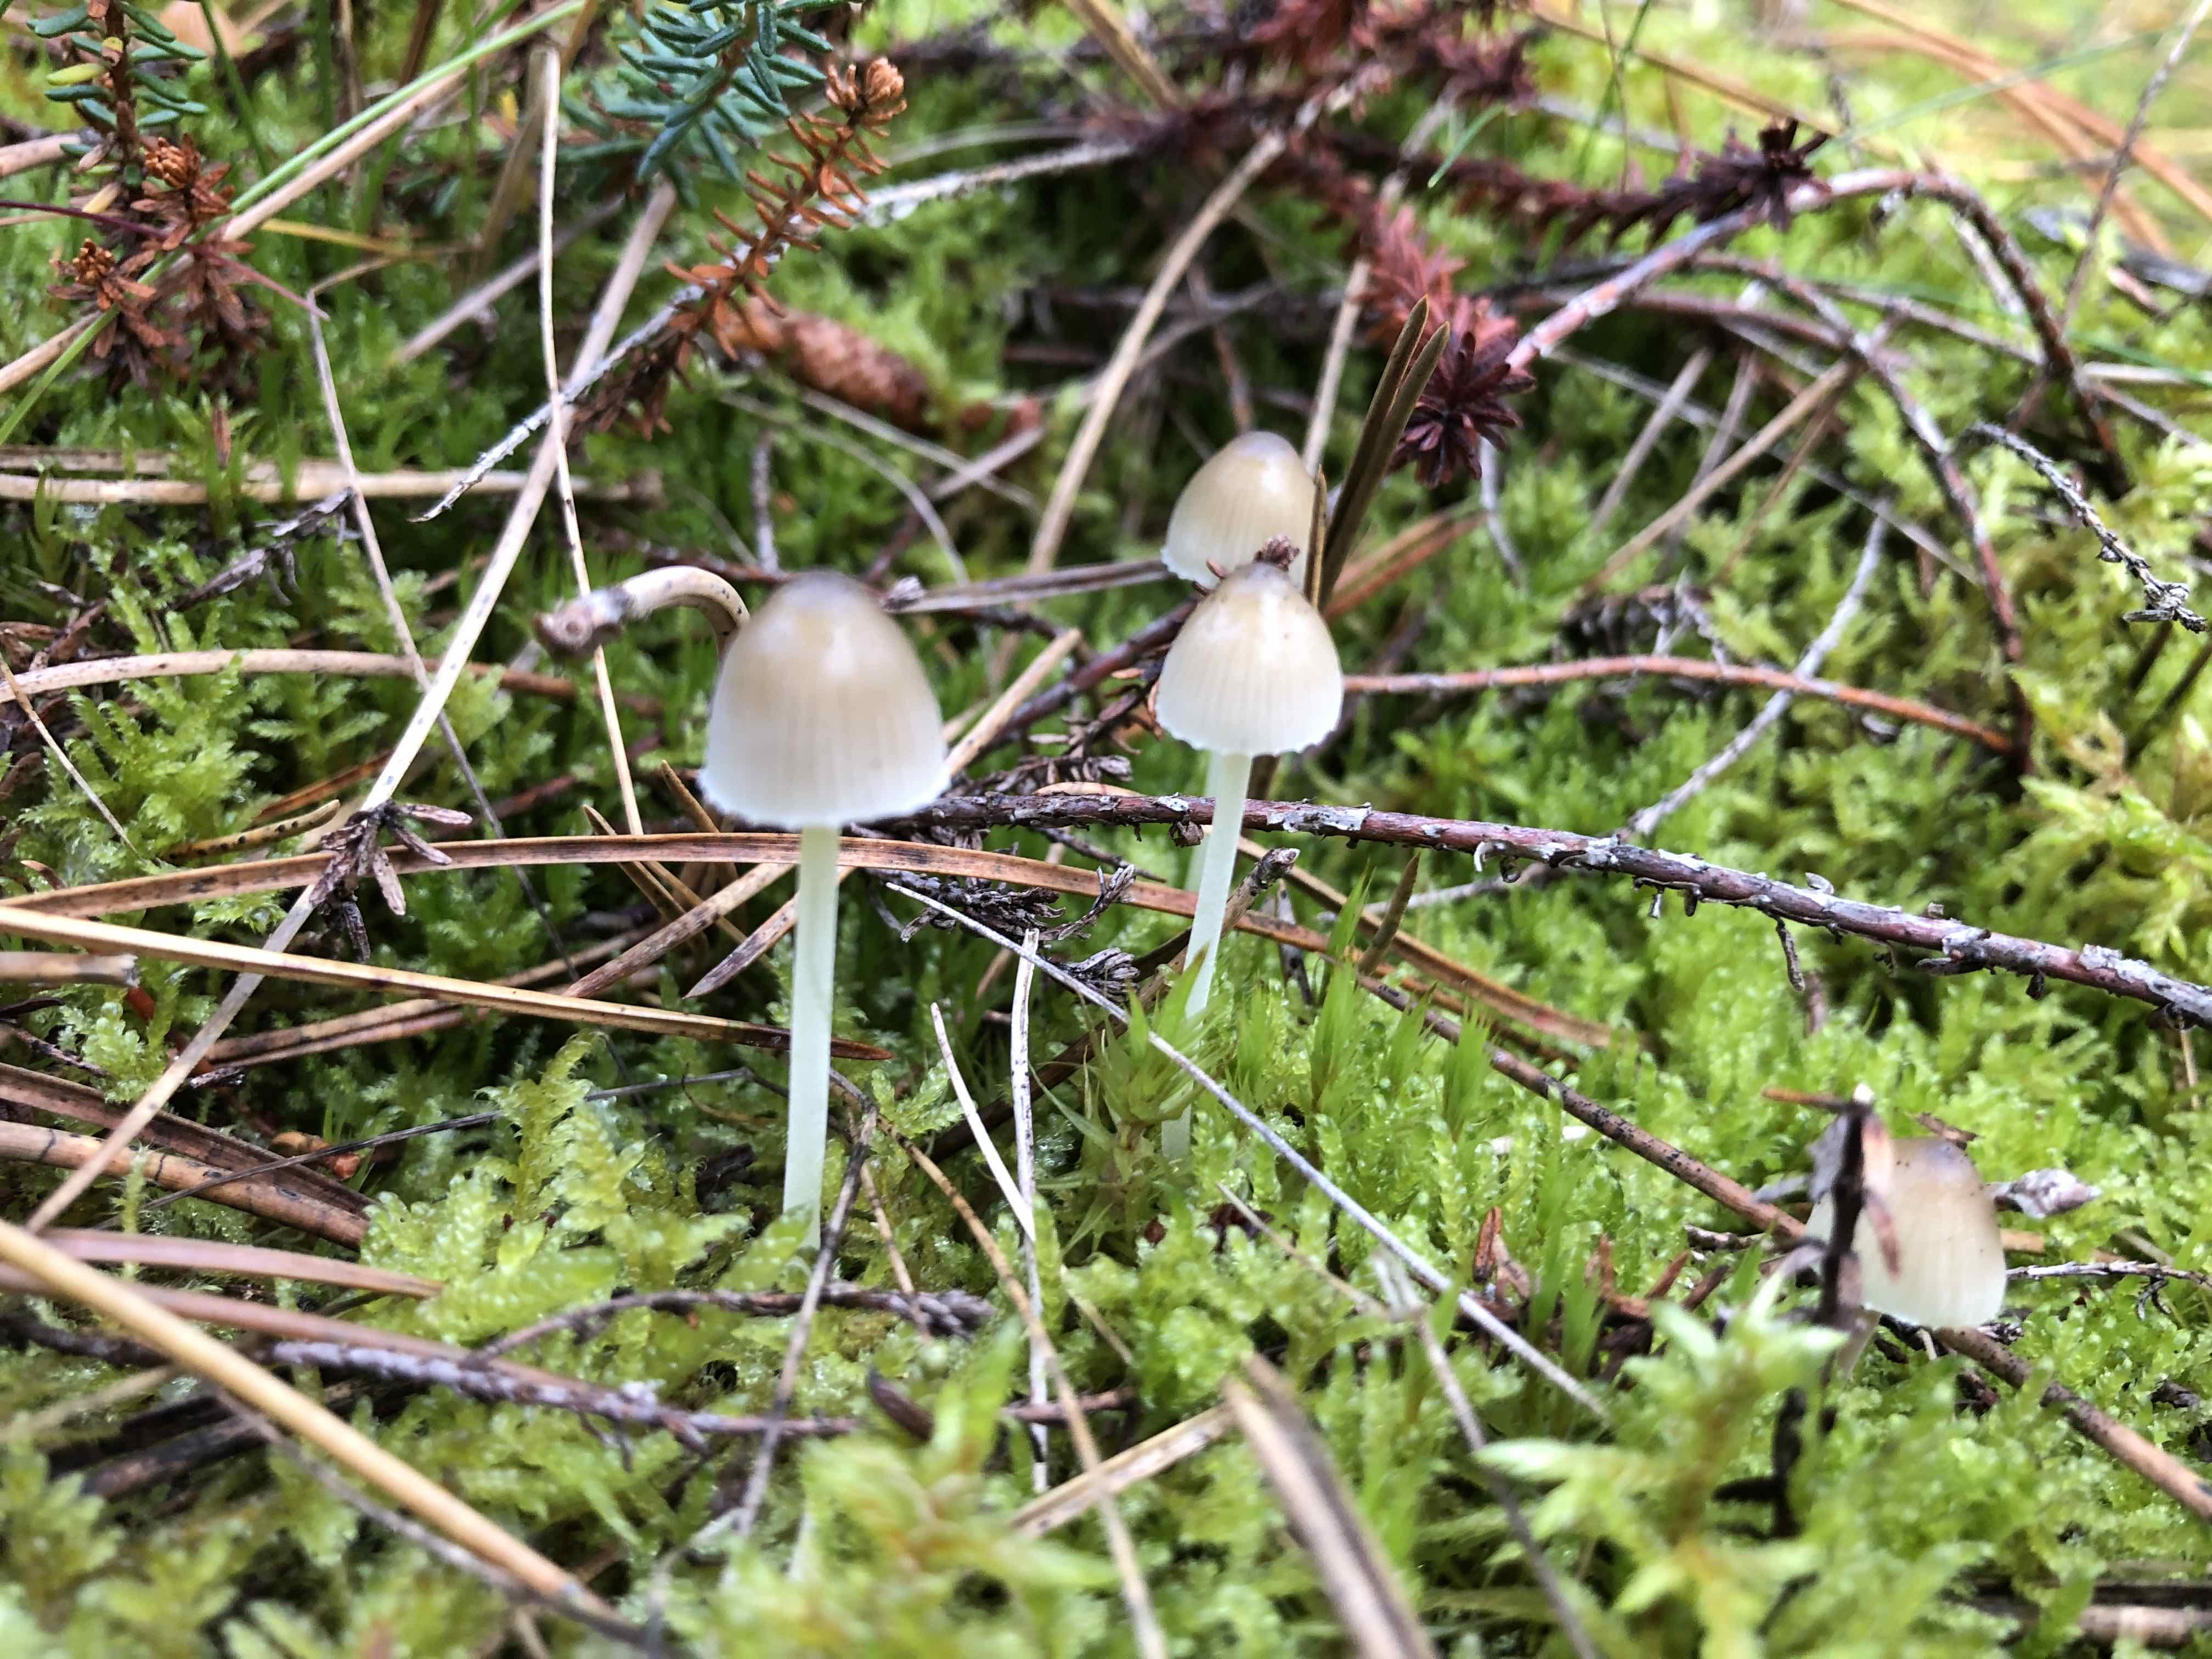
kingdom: Fungi
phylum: Basidiomycota
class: Agaricomycetes
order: Agaricales
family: Mycenaceae
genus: Mycena
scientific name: Mycena epipterygia
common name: gulstokket huesvamp
